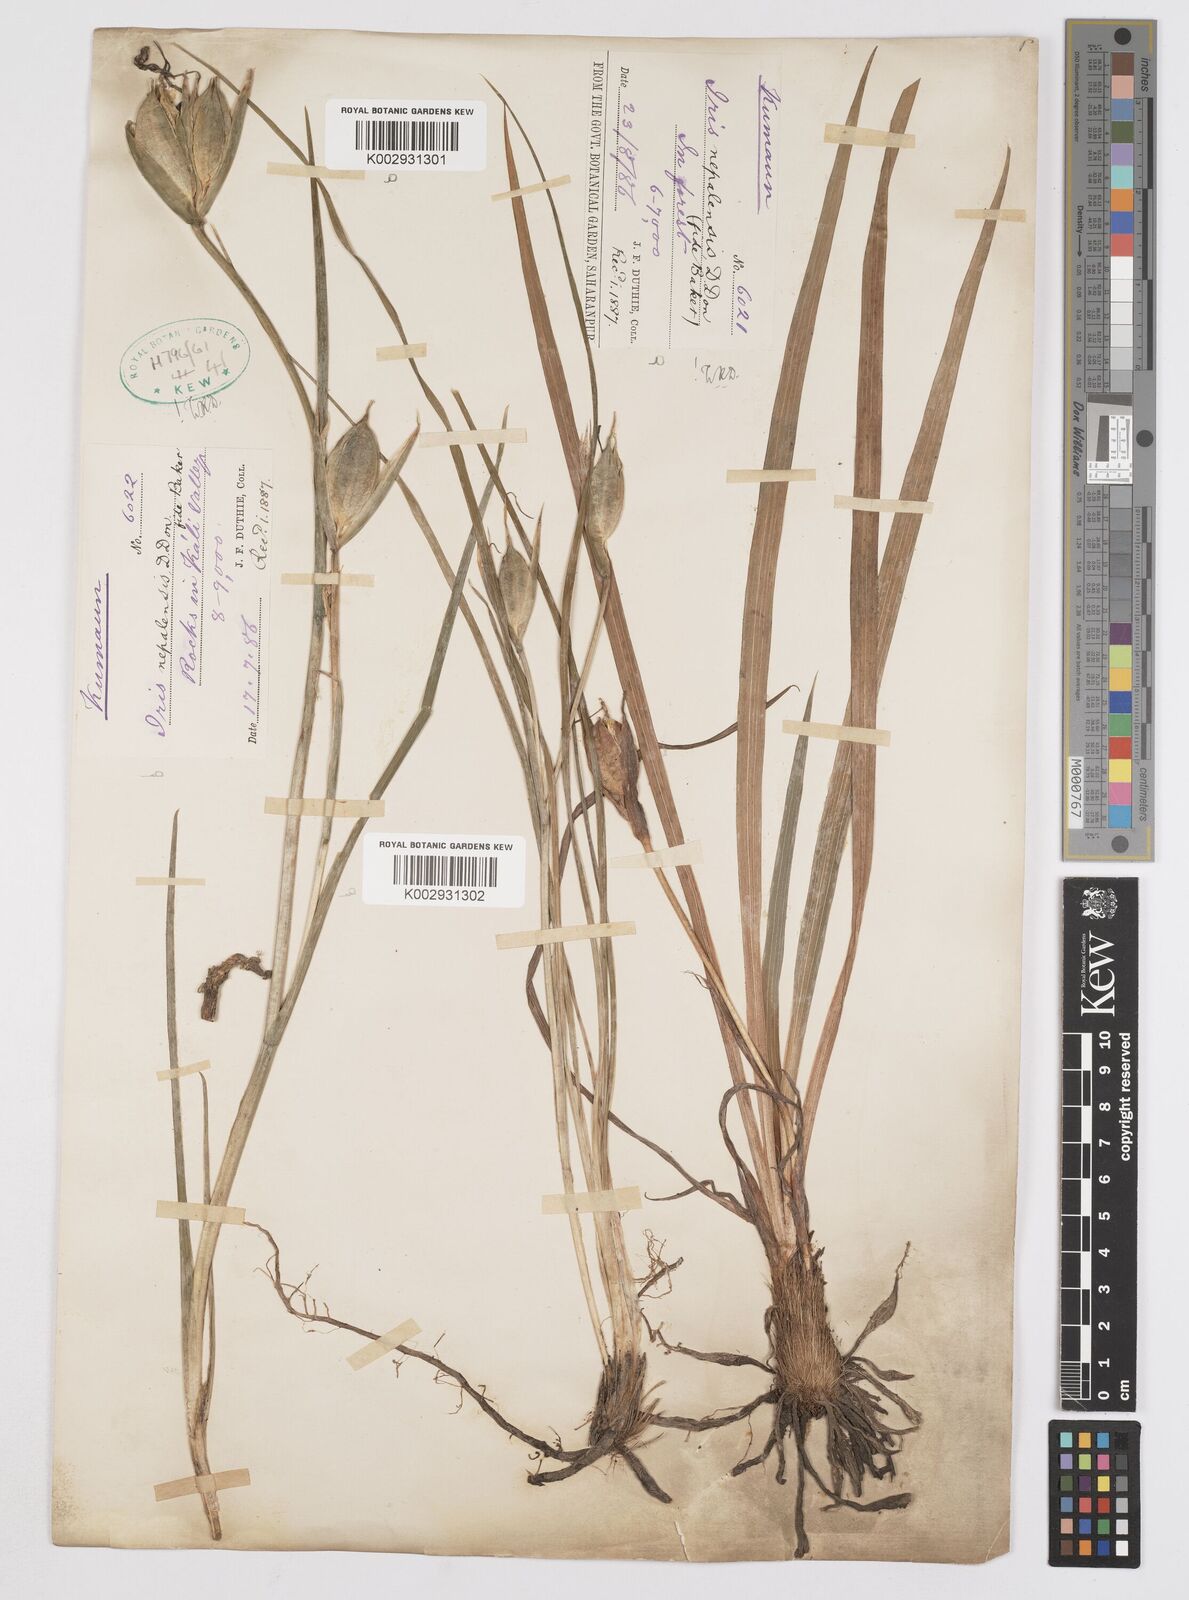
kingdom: Plantae
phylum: Tracheophyta
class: Liliopsida
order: Asparagales
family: Iridaceae
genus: Iris
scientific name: Iris decora
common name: Nepal iris
